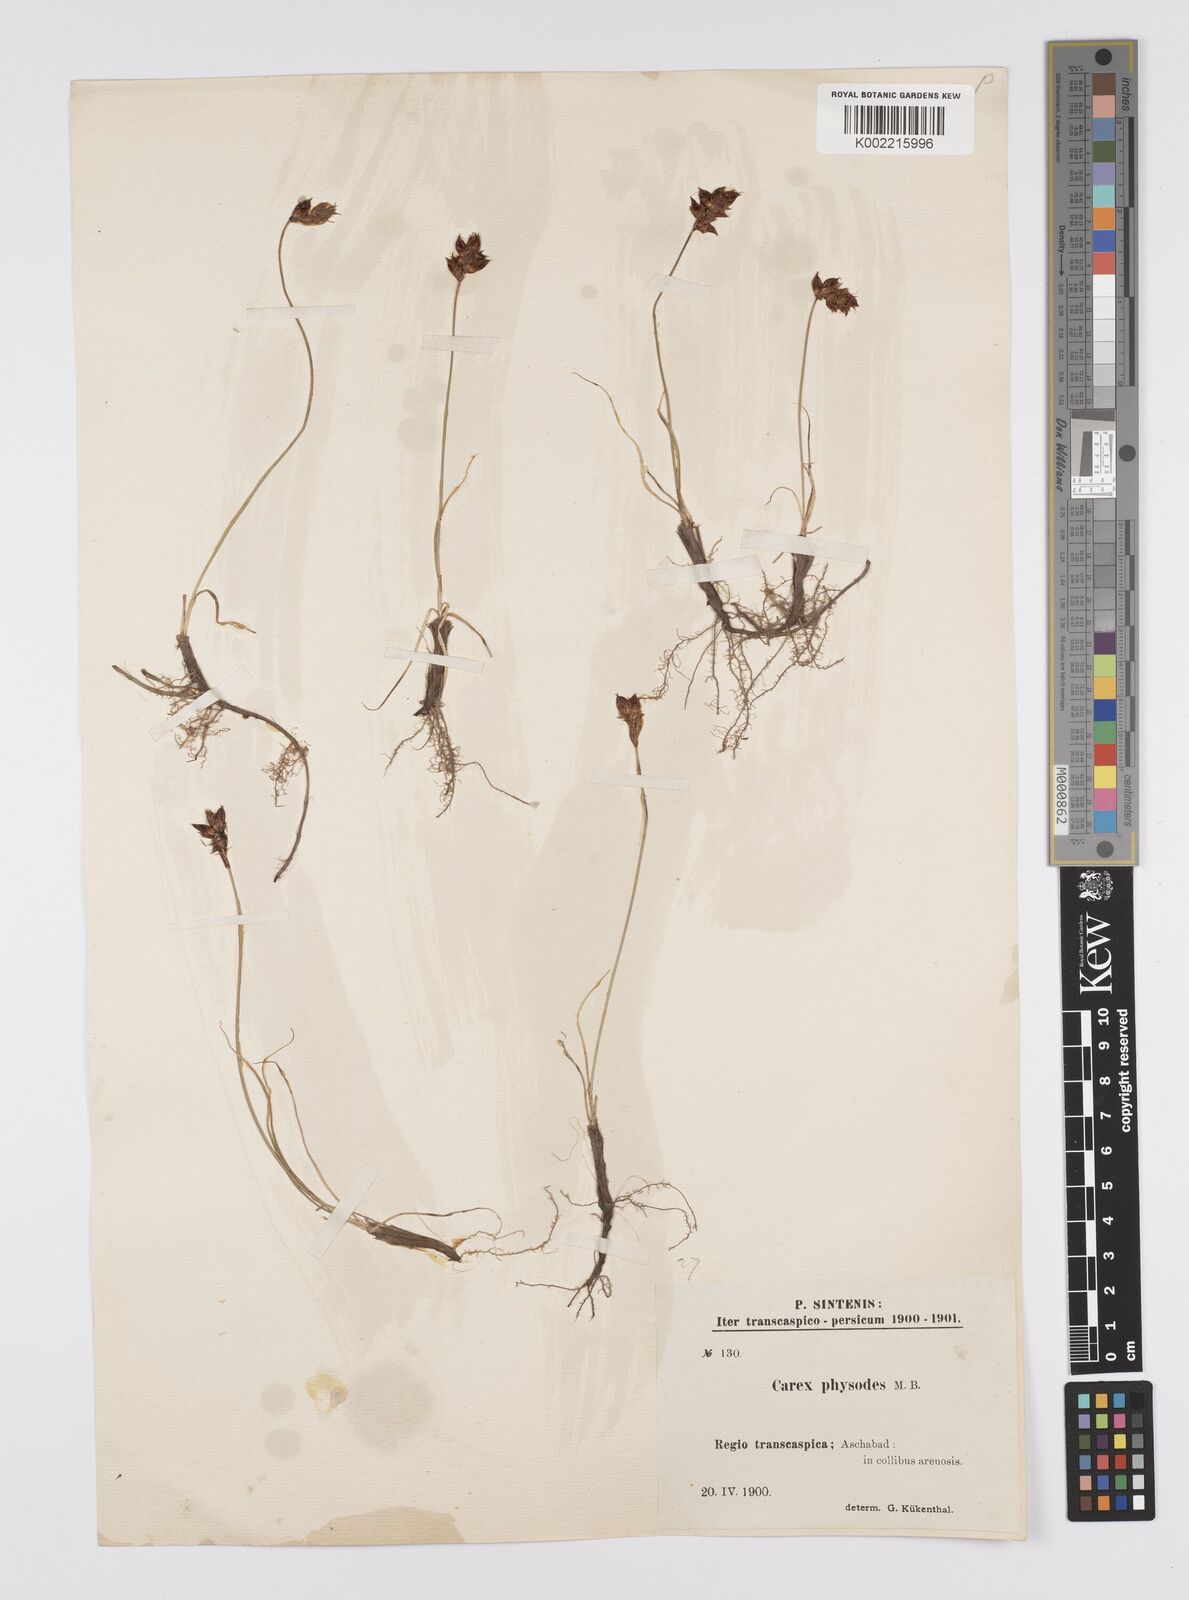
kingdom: Plantae
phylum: Tracheophyta
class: Liliopsida
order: Poales
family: Cyperaceae
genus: Carex
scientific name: Carex physodes
